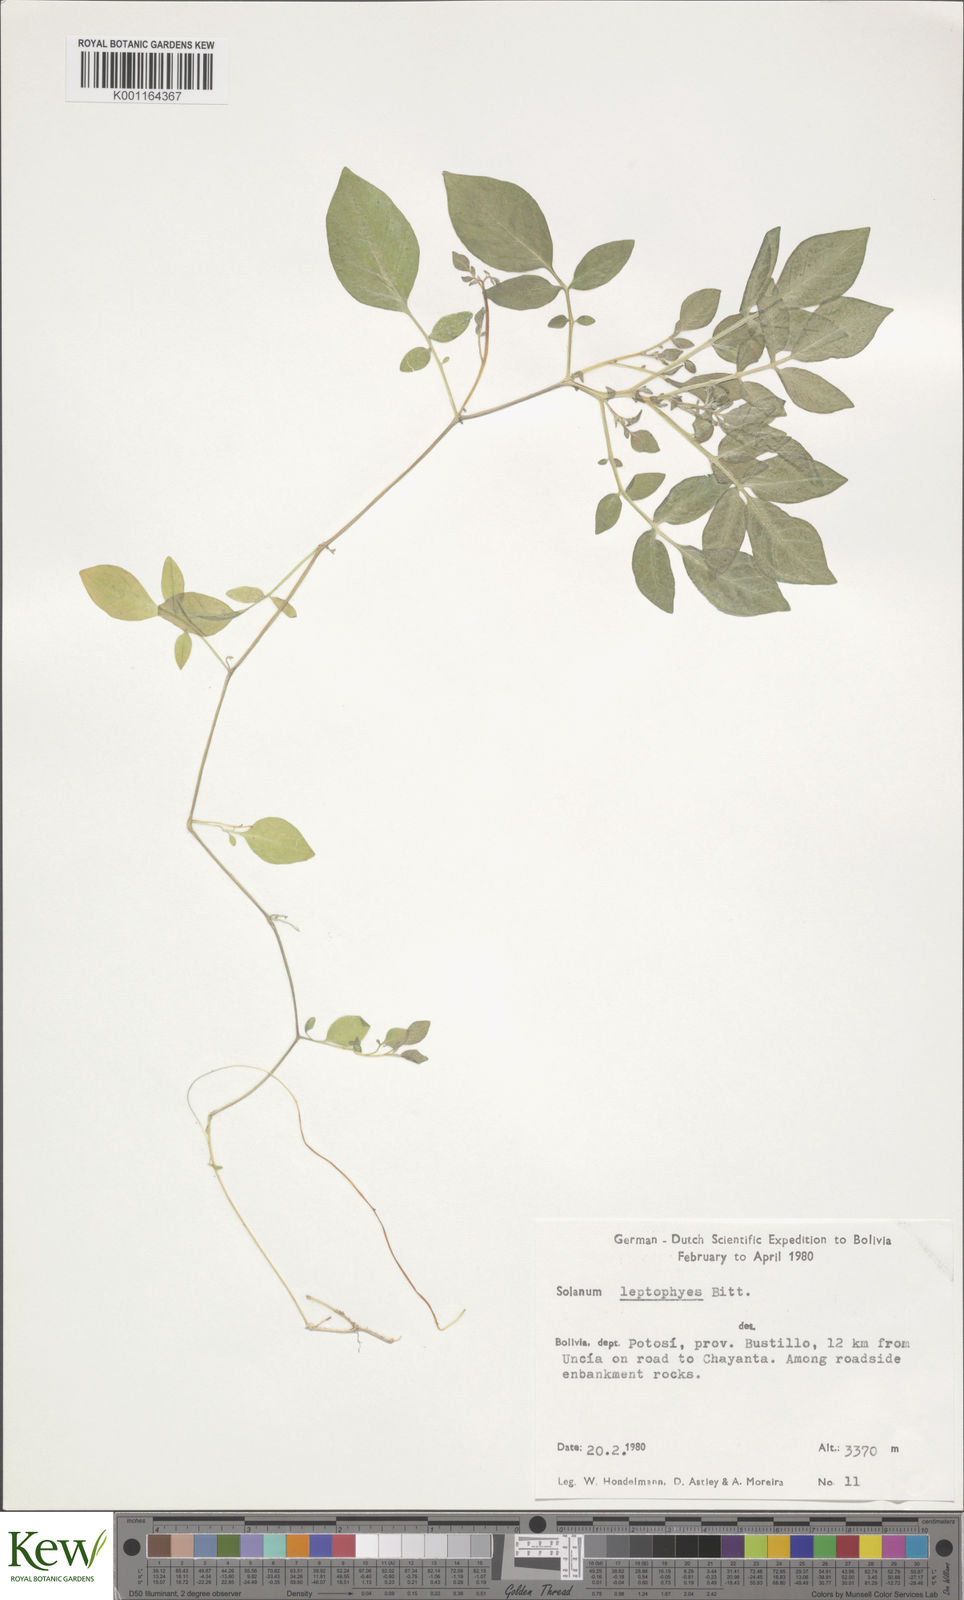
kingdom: Plantae
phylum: Tracheophyta
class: Magnoliopsida
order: Solanales
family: Solanaceae
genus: Solanum
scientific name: Solanum brevicaule
